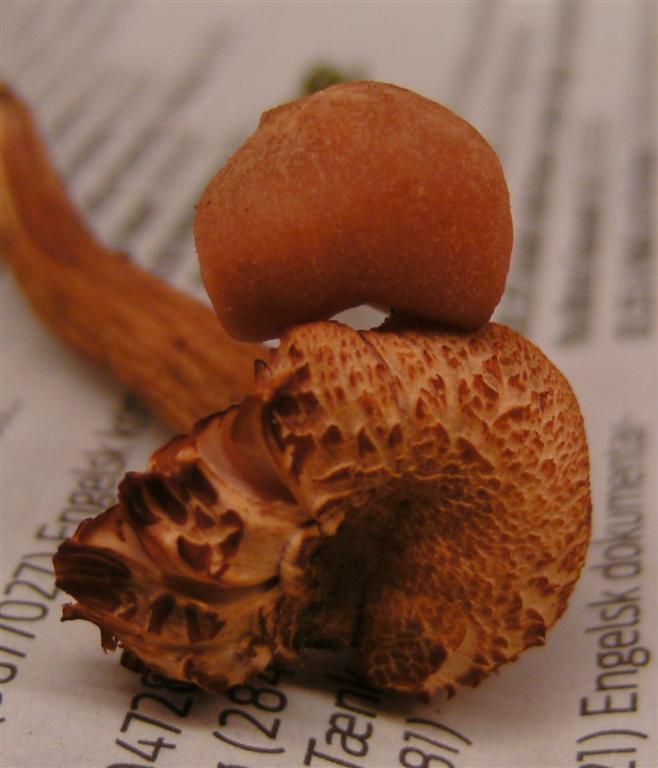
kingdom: Fungi
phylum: Basidiomycota
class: Agaricomycetes
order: Agaricales
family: Hydnangiaceae
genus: Laccaria
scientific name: Laccaria proxima
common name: stor ametysthat
